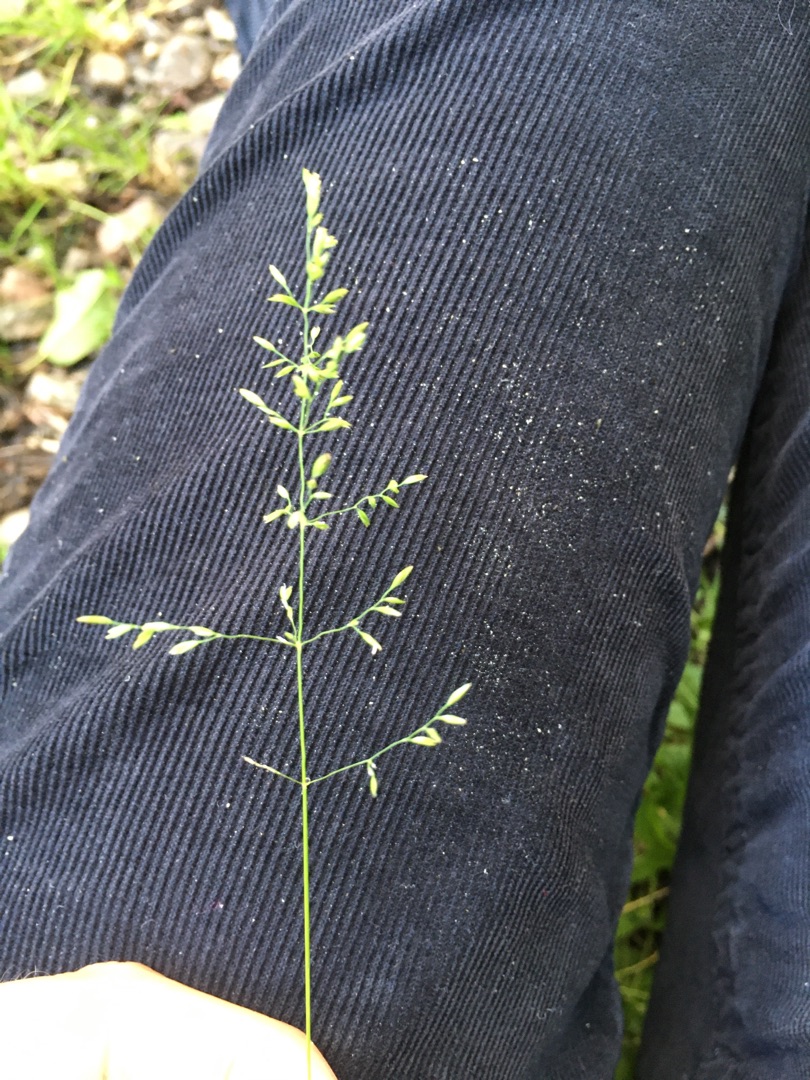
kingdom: Plantae
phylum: Tracheophyta
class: Liliopsida
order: Poales
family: Poaceae
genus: Poa
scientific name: Poa
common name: Rapgræsslægten
